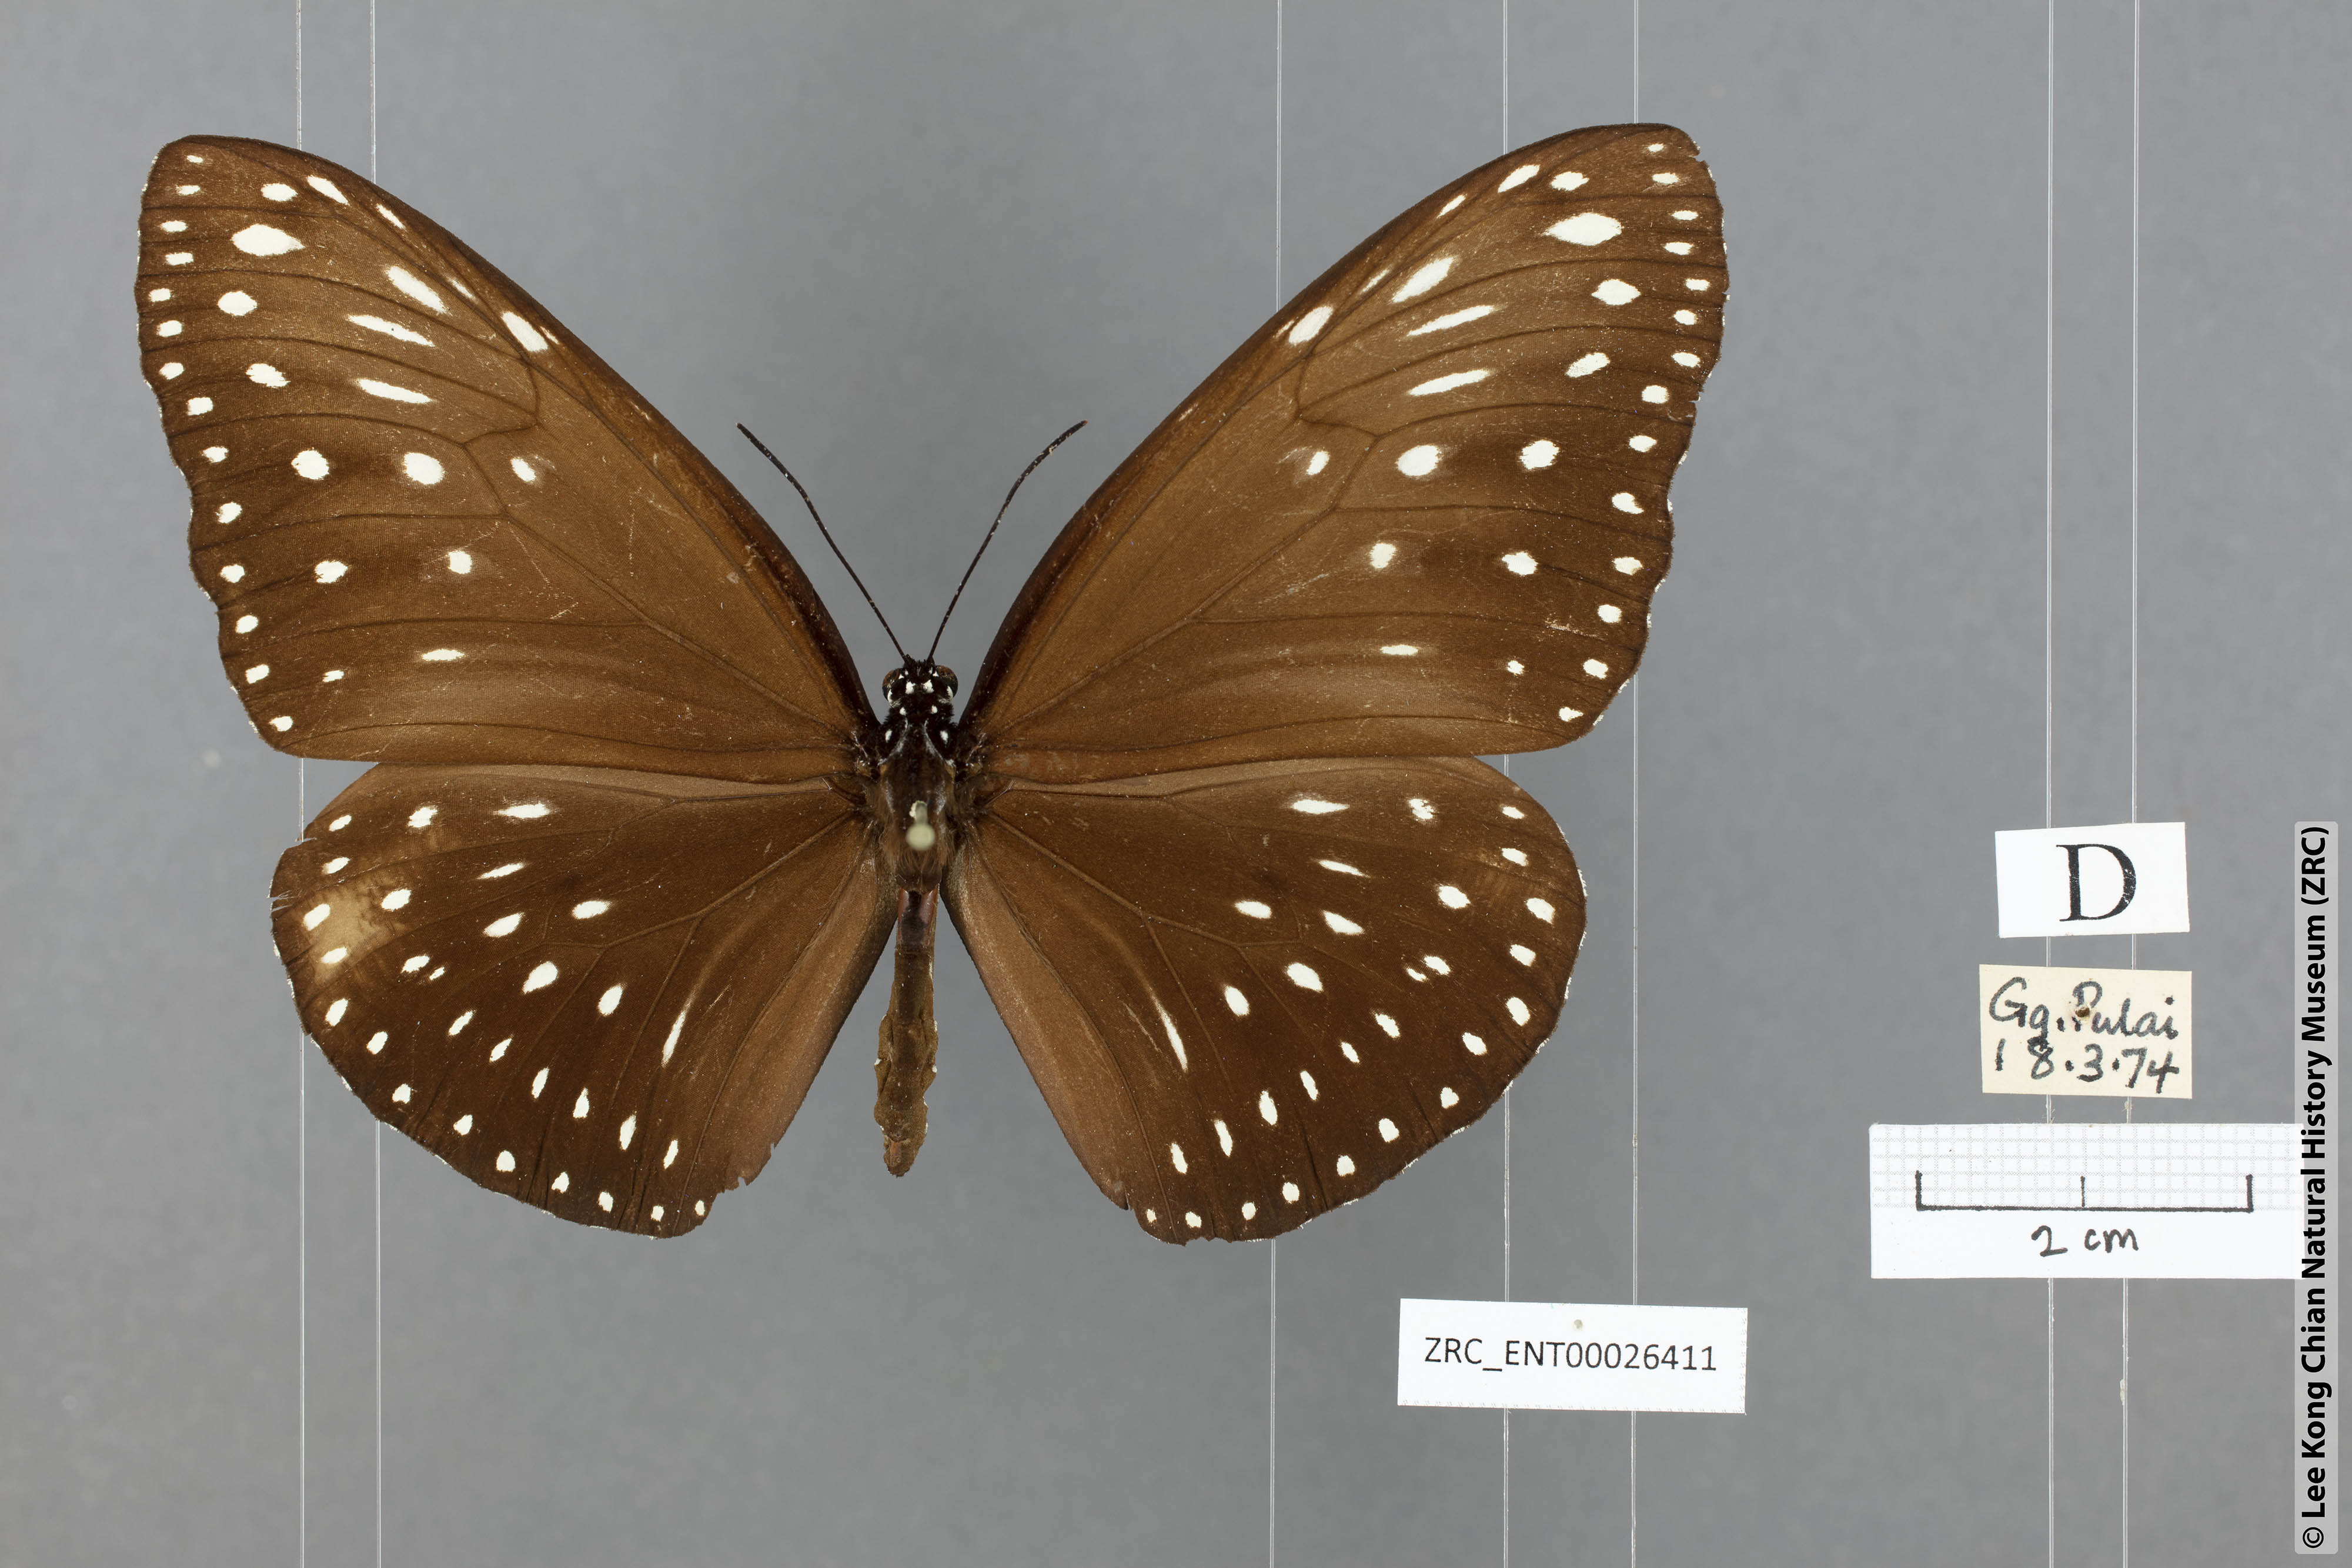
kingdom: Animalia
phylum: Arthropoda
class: Insecta
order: Lepidoptera
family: Nymphalidae
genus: Euploea
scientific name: Euploea camaralzeman
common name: Malayan crow butterfly
